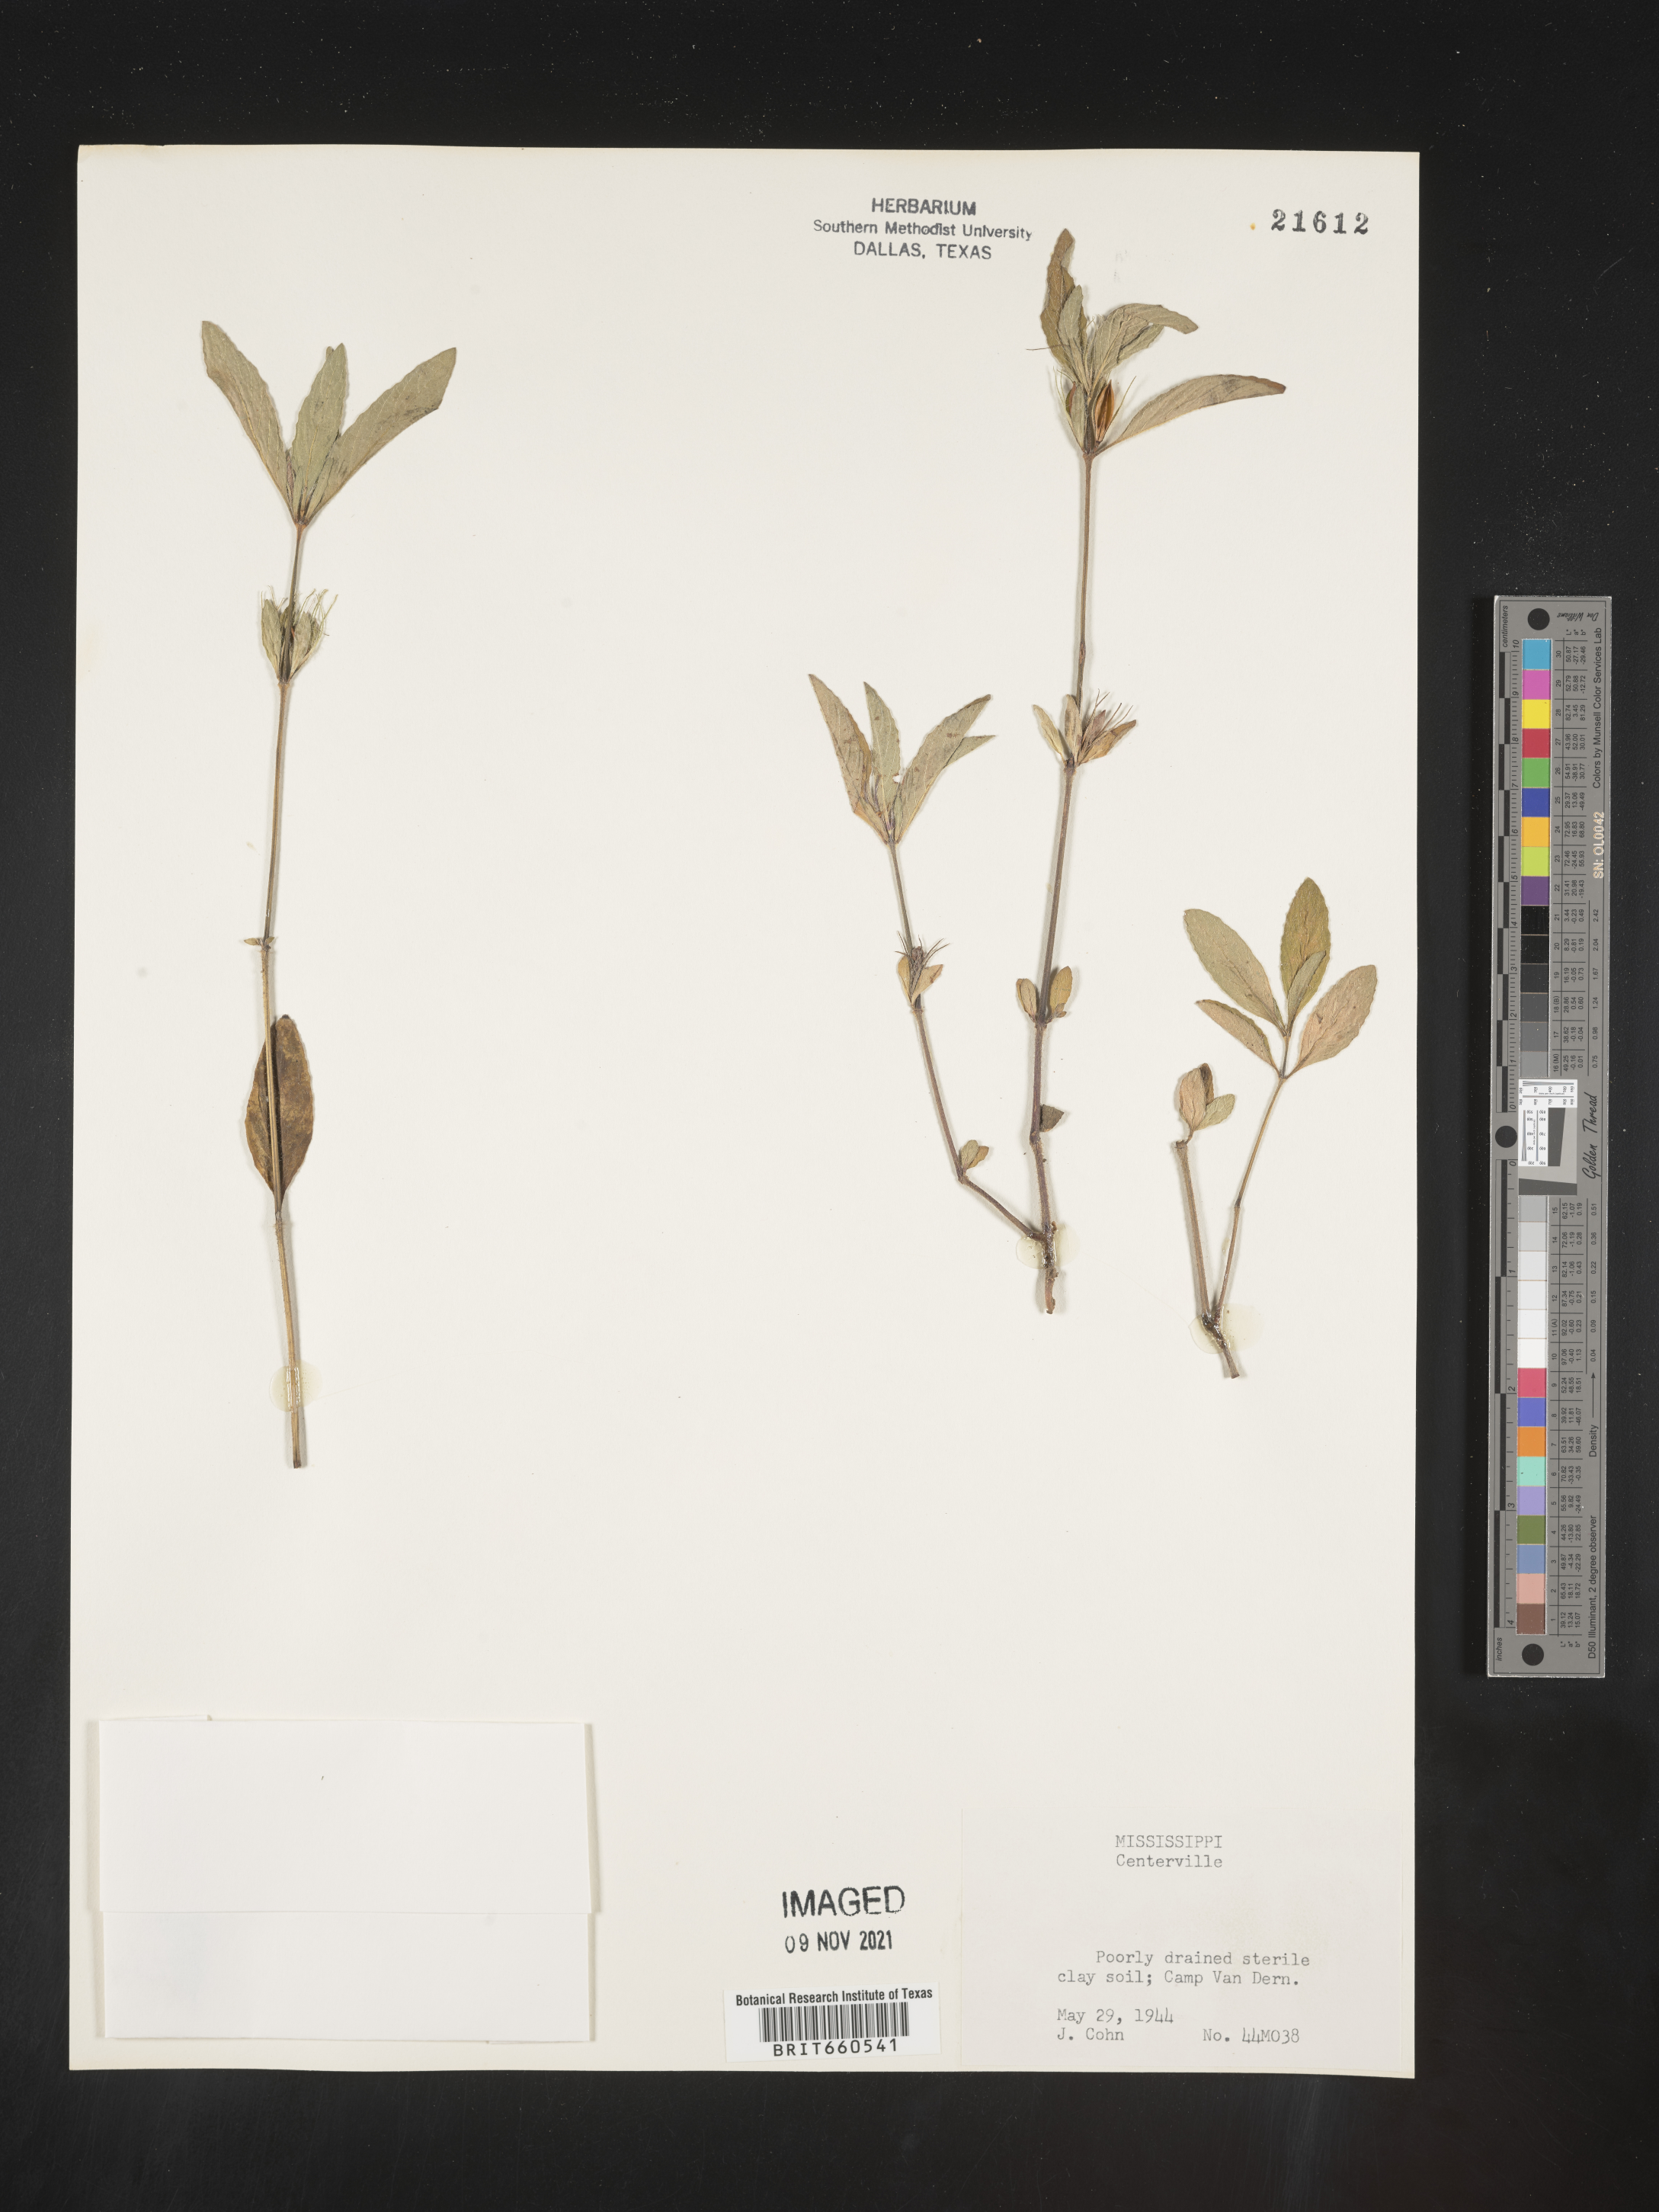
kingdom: Plantae
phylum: Tracheophyta
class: Magnoliopsida
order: Lamiales
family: Acanthaceae
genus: Ruellia
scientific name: Ruellia
